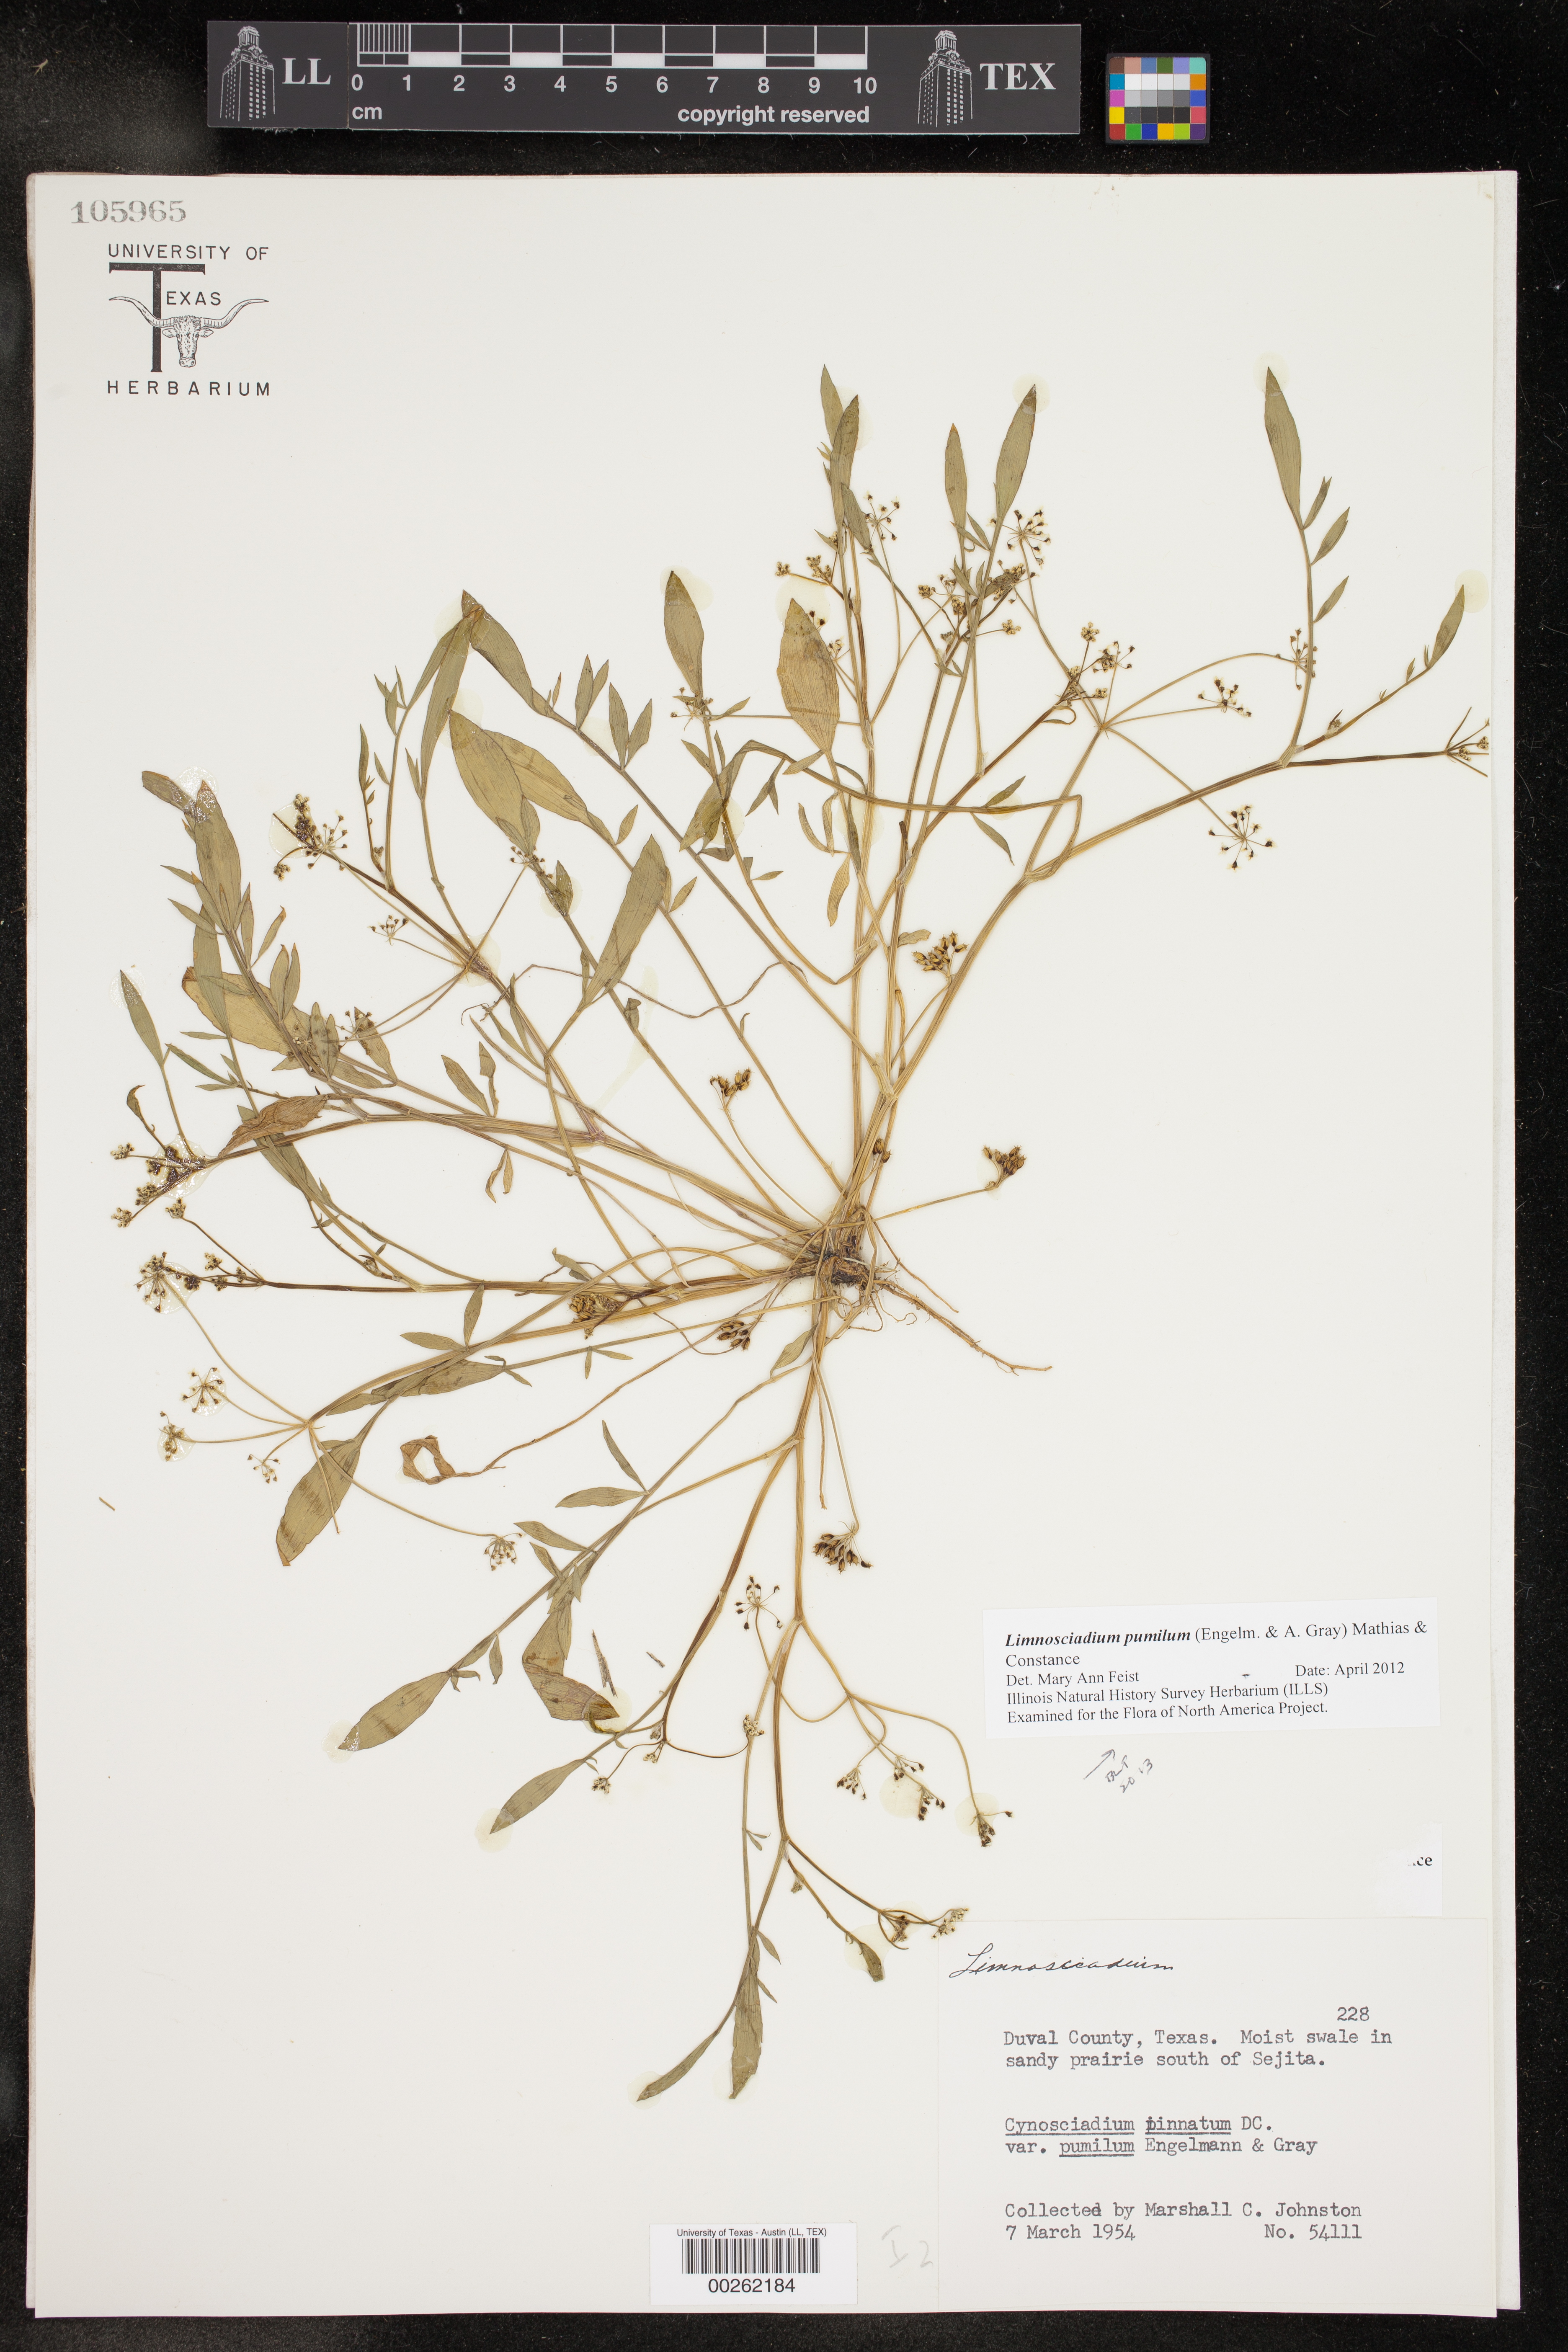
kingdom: Plantae
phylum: Tracheophyta
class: Magnoliopsida
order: Apiales
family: Apiaceae
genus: Limnosciadium
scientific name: Limnosciadium pinnatum
